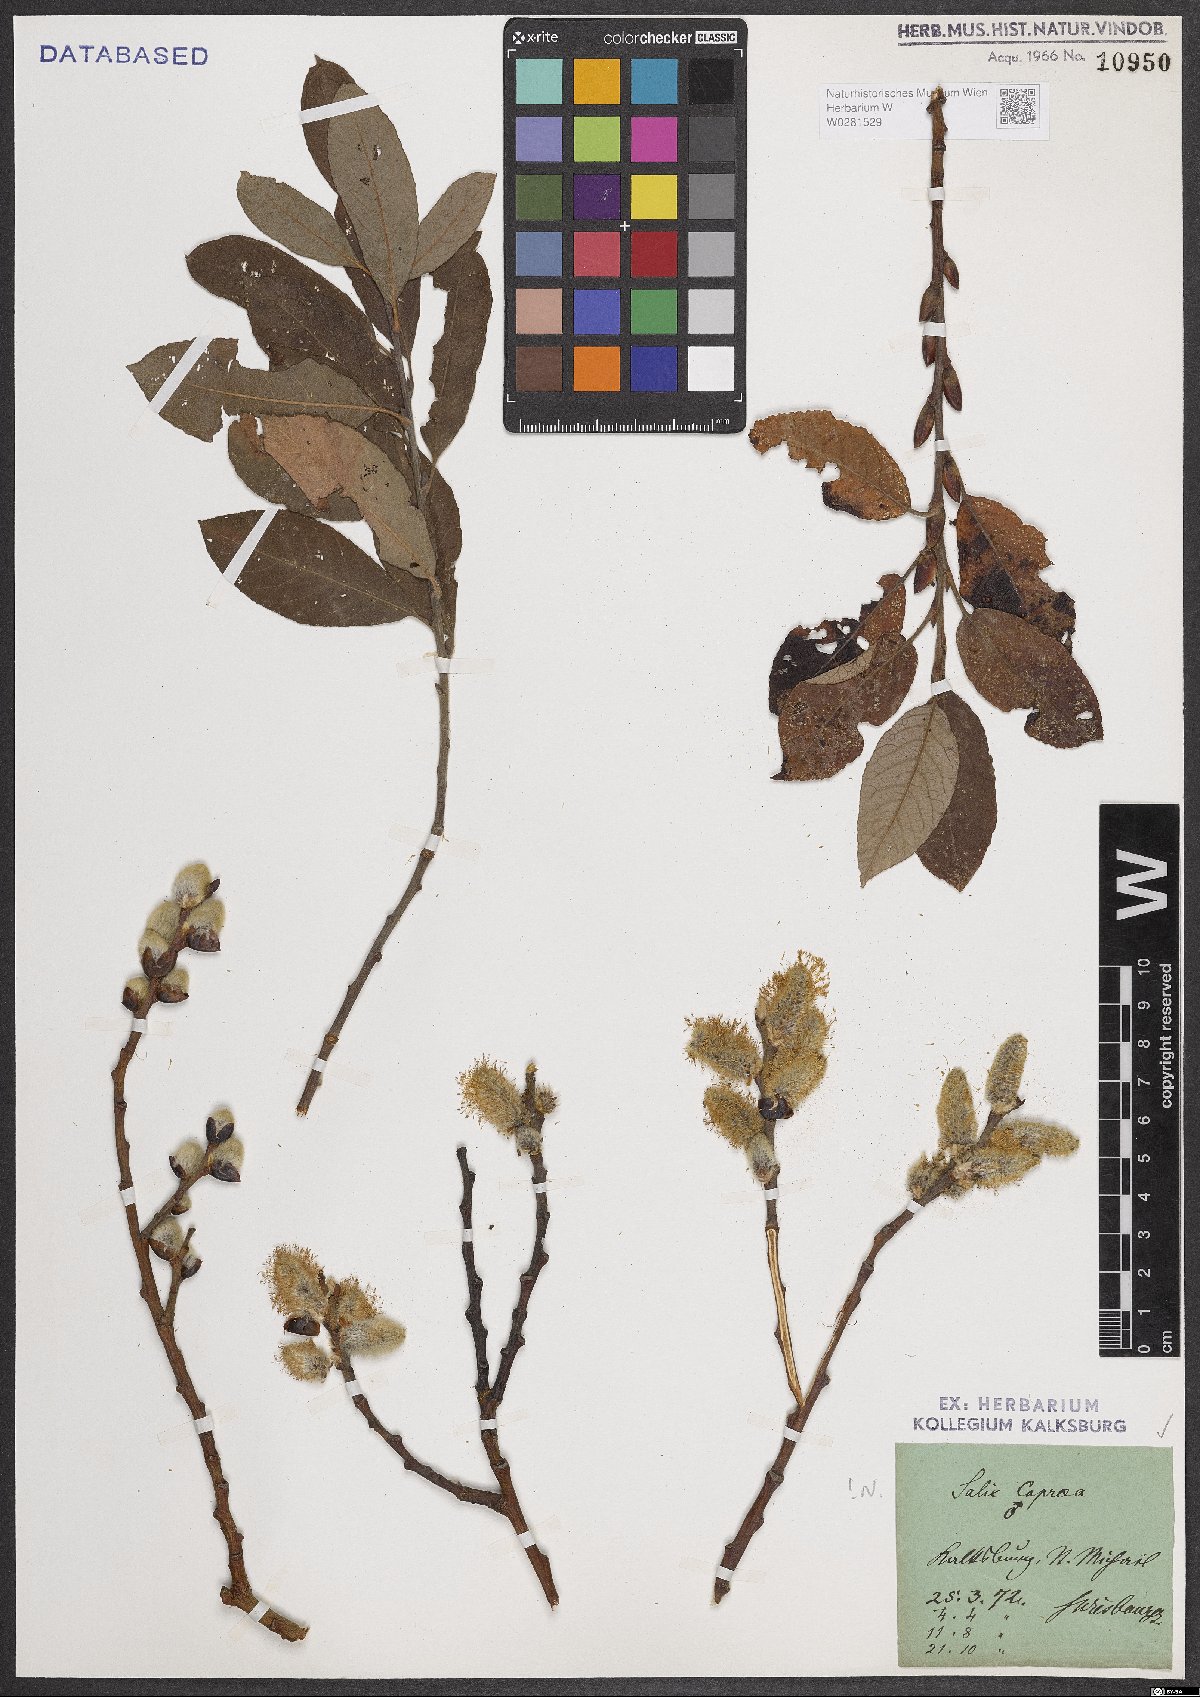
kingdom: Plantae
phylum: Tracheophyta
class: Magnoliopsida
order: Malpighiales
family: Salicaceae
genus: Salix
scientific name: Salix caprea
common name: Goat willow
